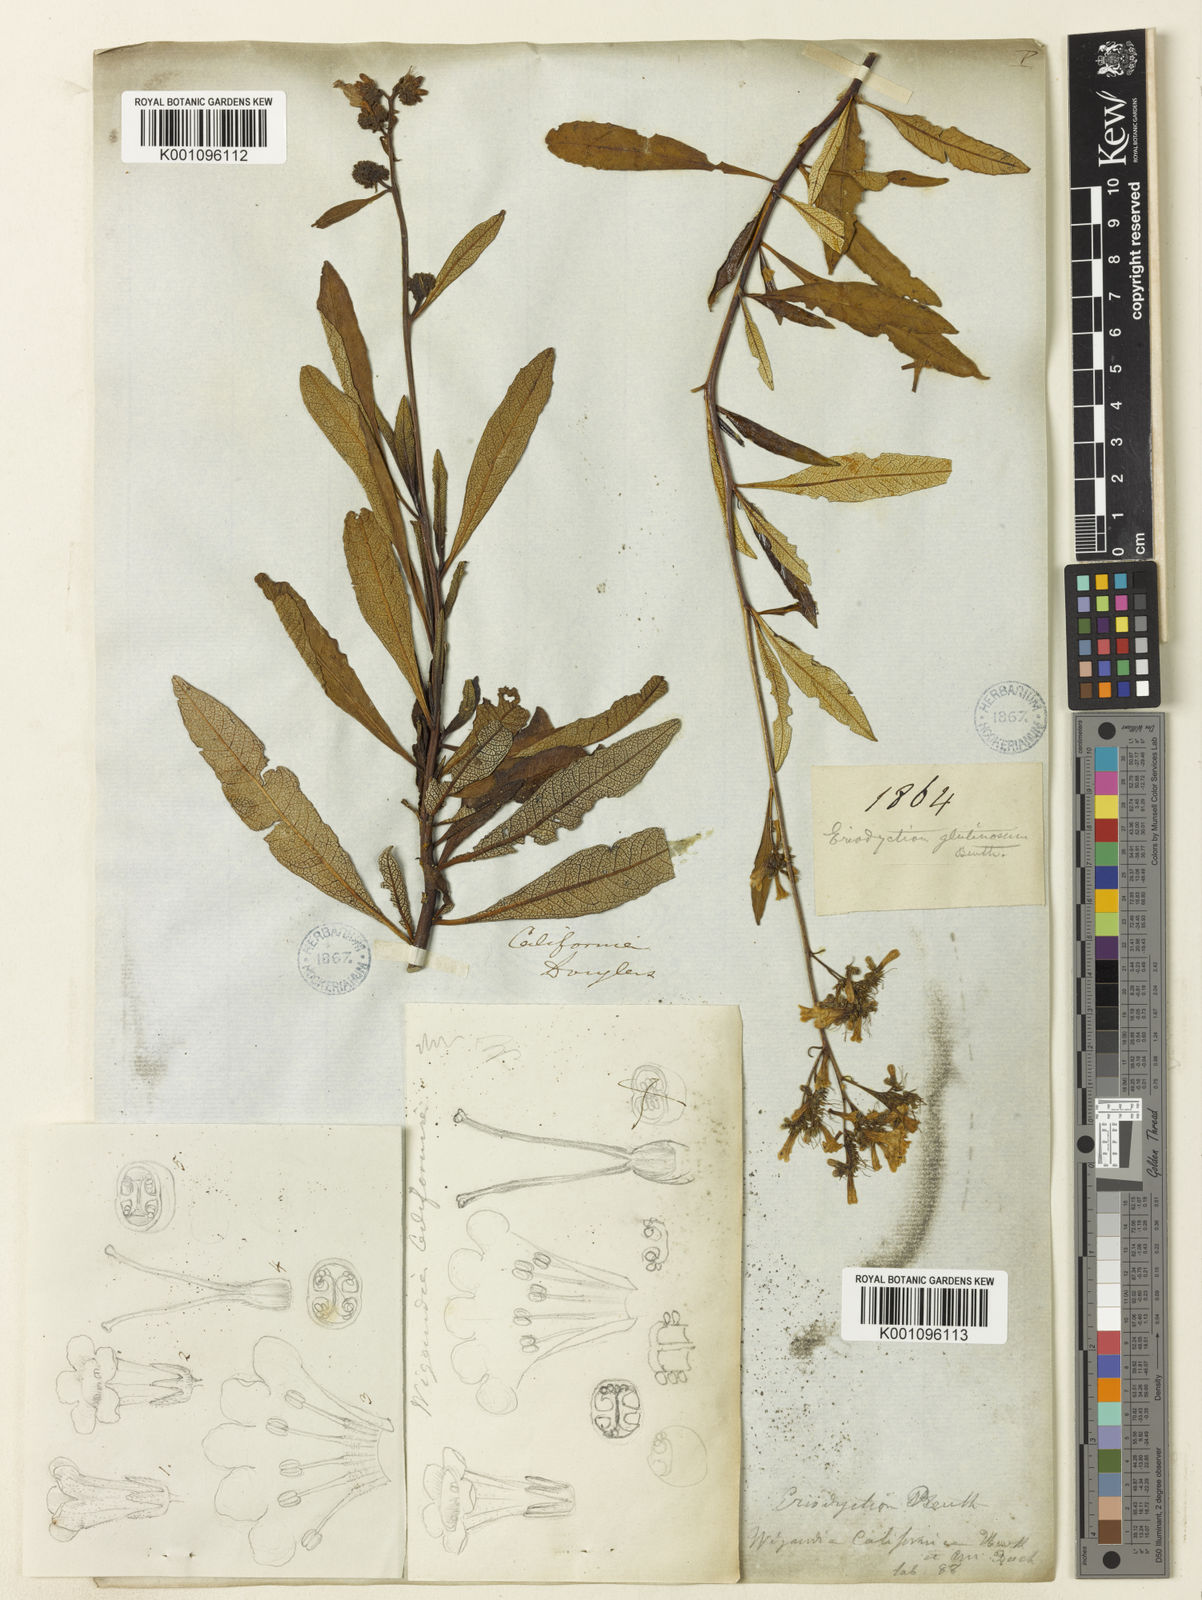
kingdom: Plantae
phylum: Tracheophyta
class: Magnoliopsida
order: Boraginales
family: Namaceae
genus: Eriodictyon
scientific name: Eriodictyon
